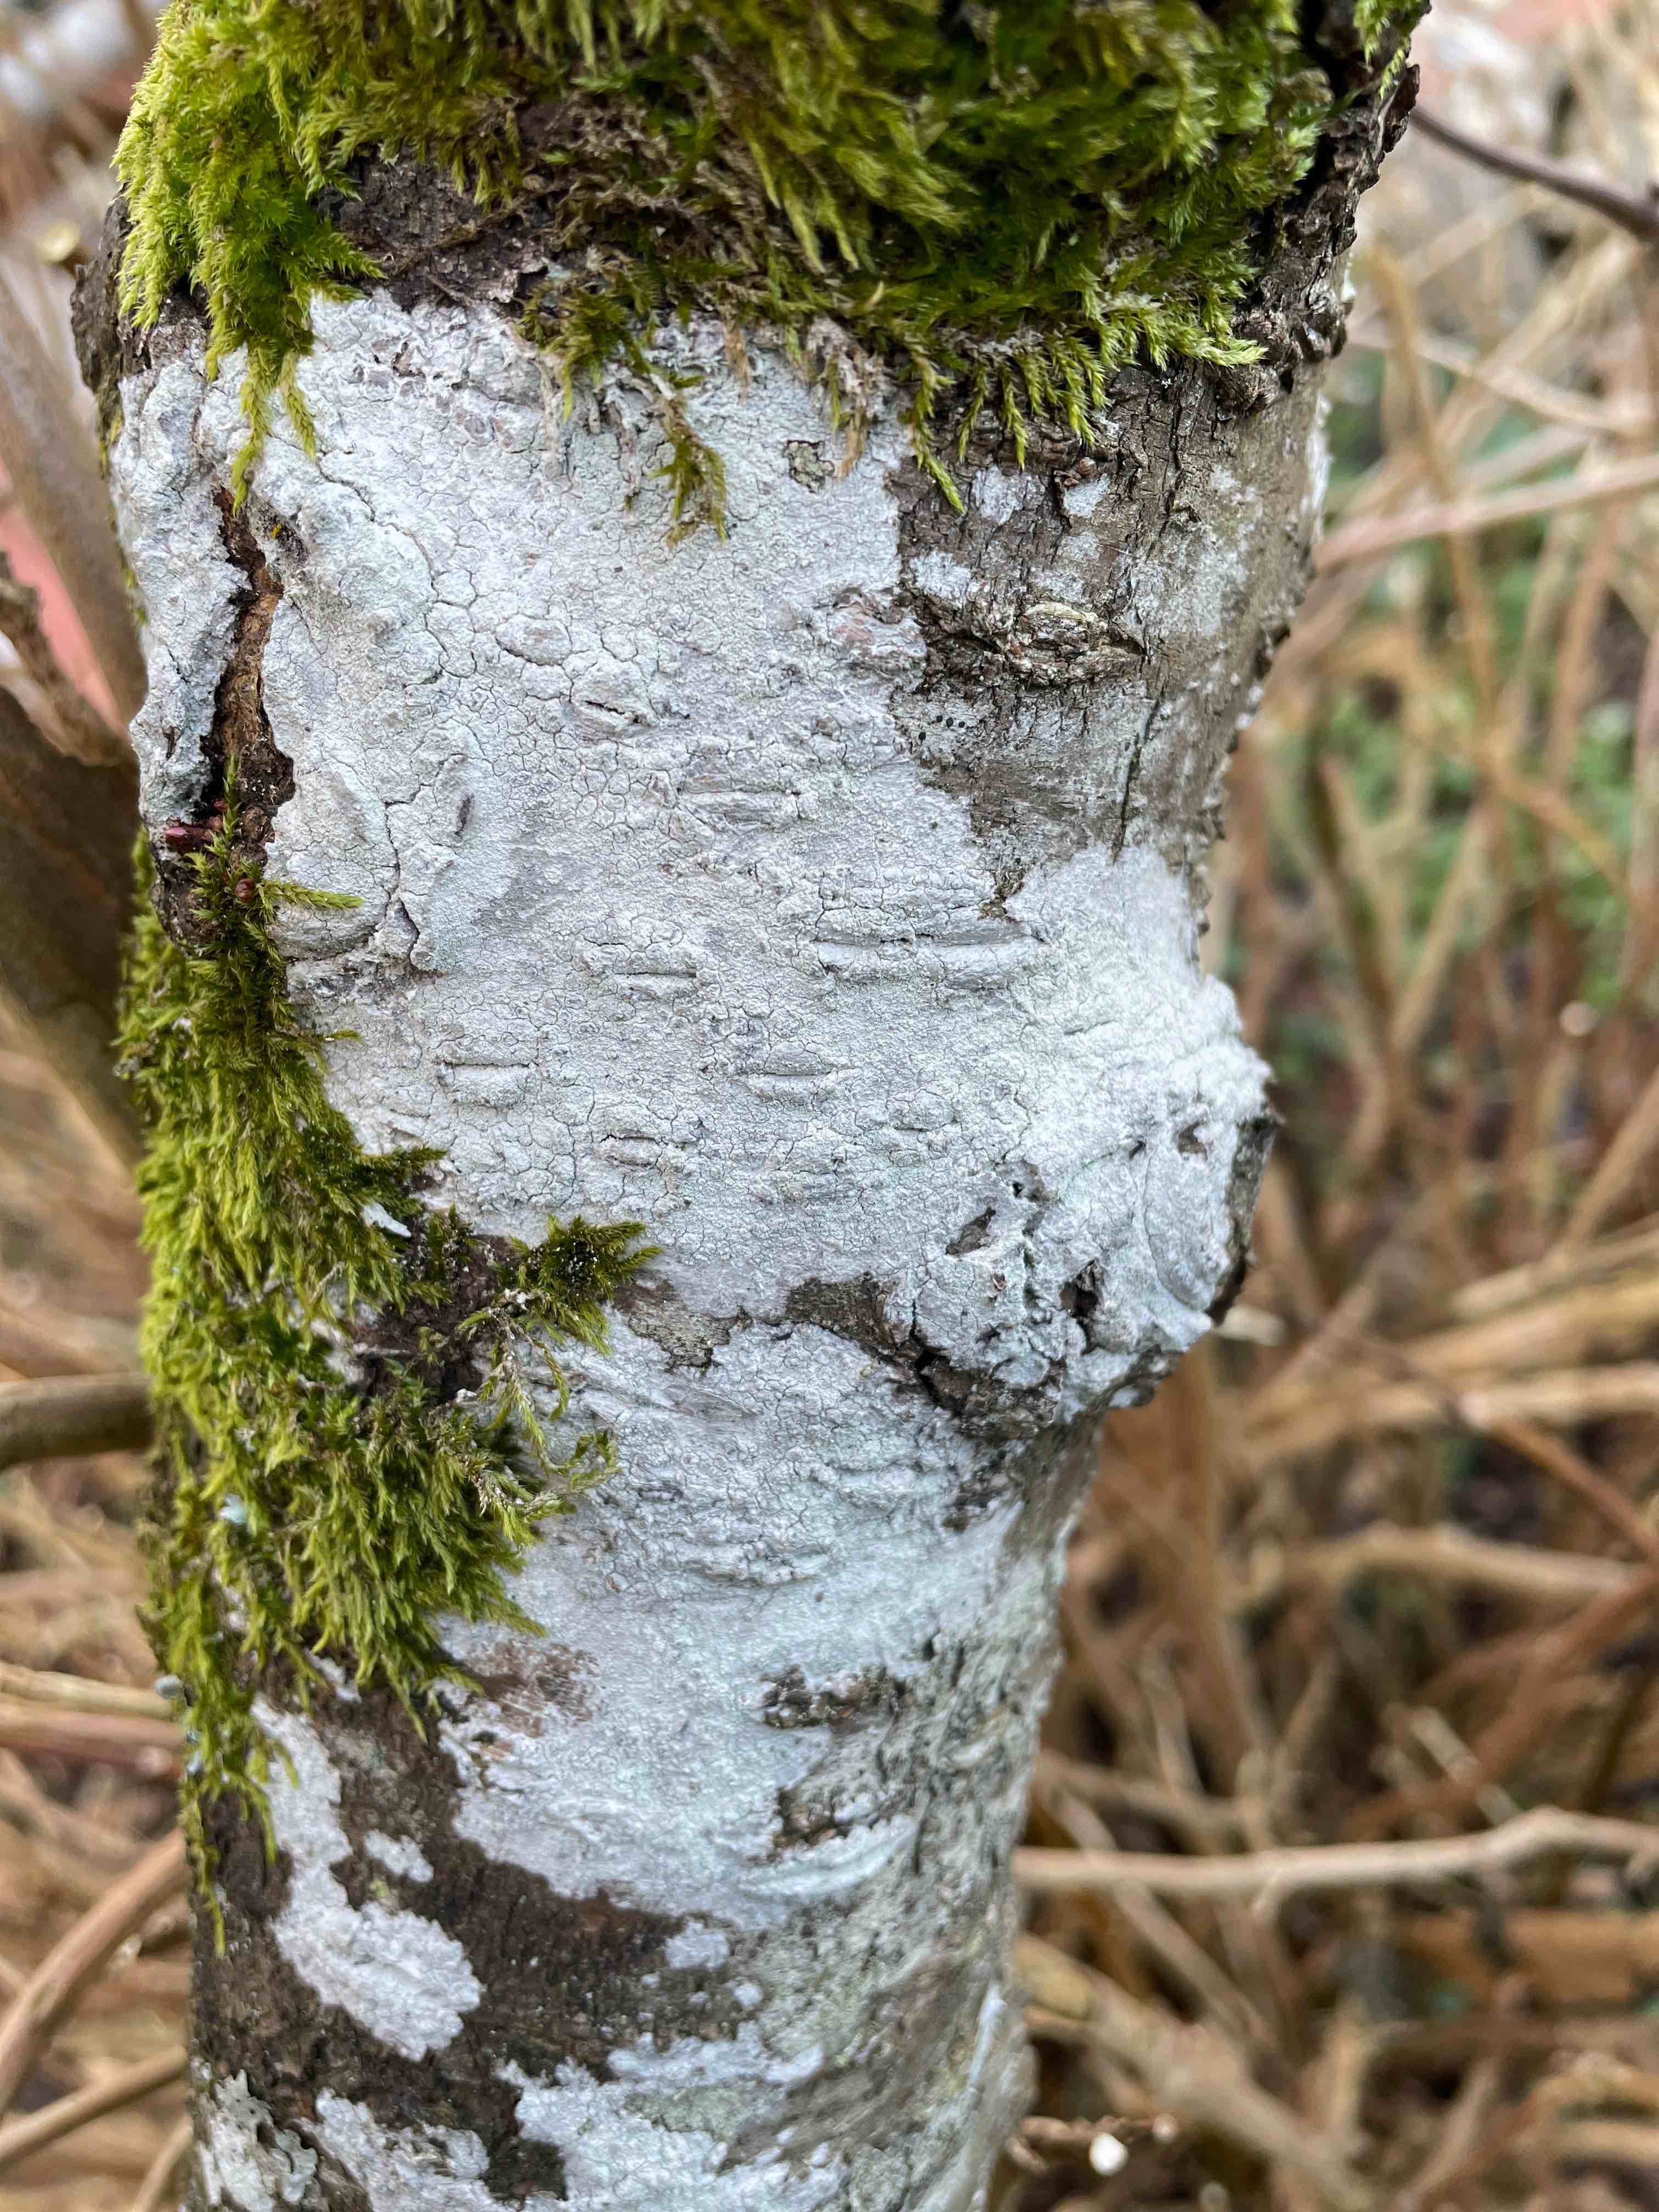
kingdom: Fungi
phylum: Ascomycota
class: Lecanoromycetes
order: Ostropales
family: Phlyctidaceae
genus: Phlyctis
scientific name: Phlyctis argena
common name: almindelig sølvlav
